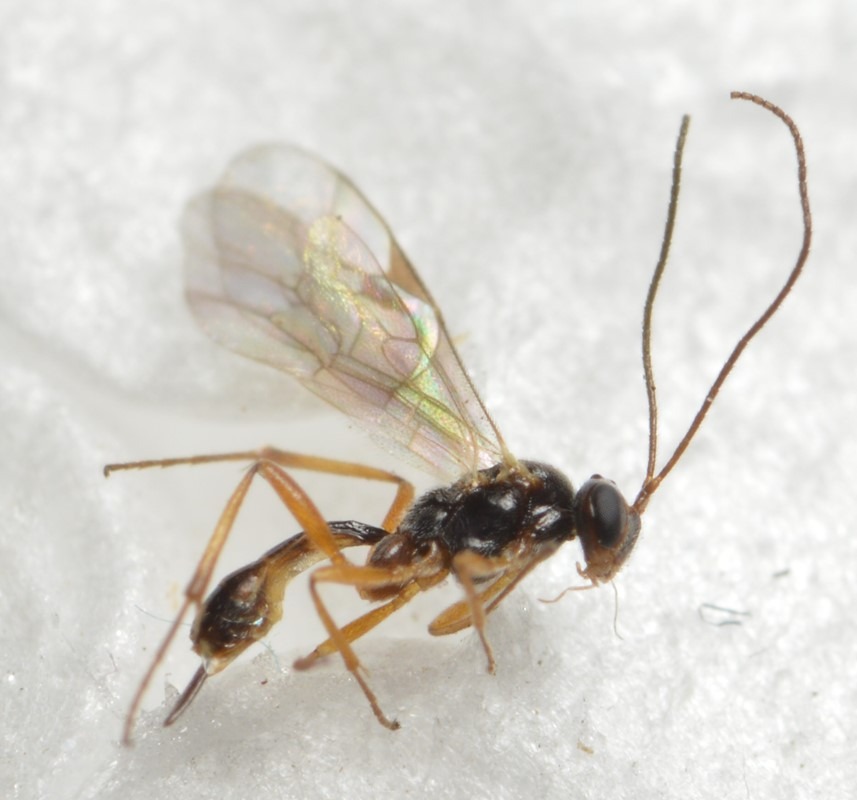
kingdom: Animalia
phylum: Arthropoda
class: Insecta
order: Hymenoptera
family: Ichneumonidae
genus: Mesochorus
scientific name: Mesochorus olitorius
